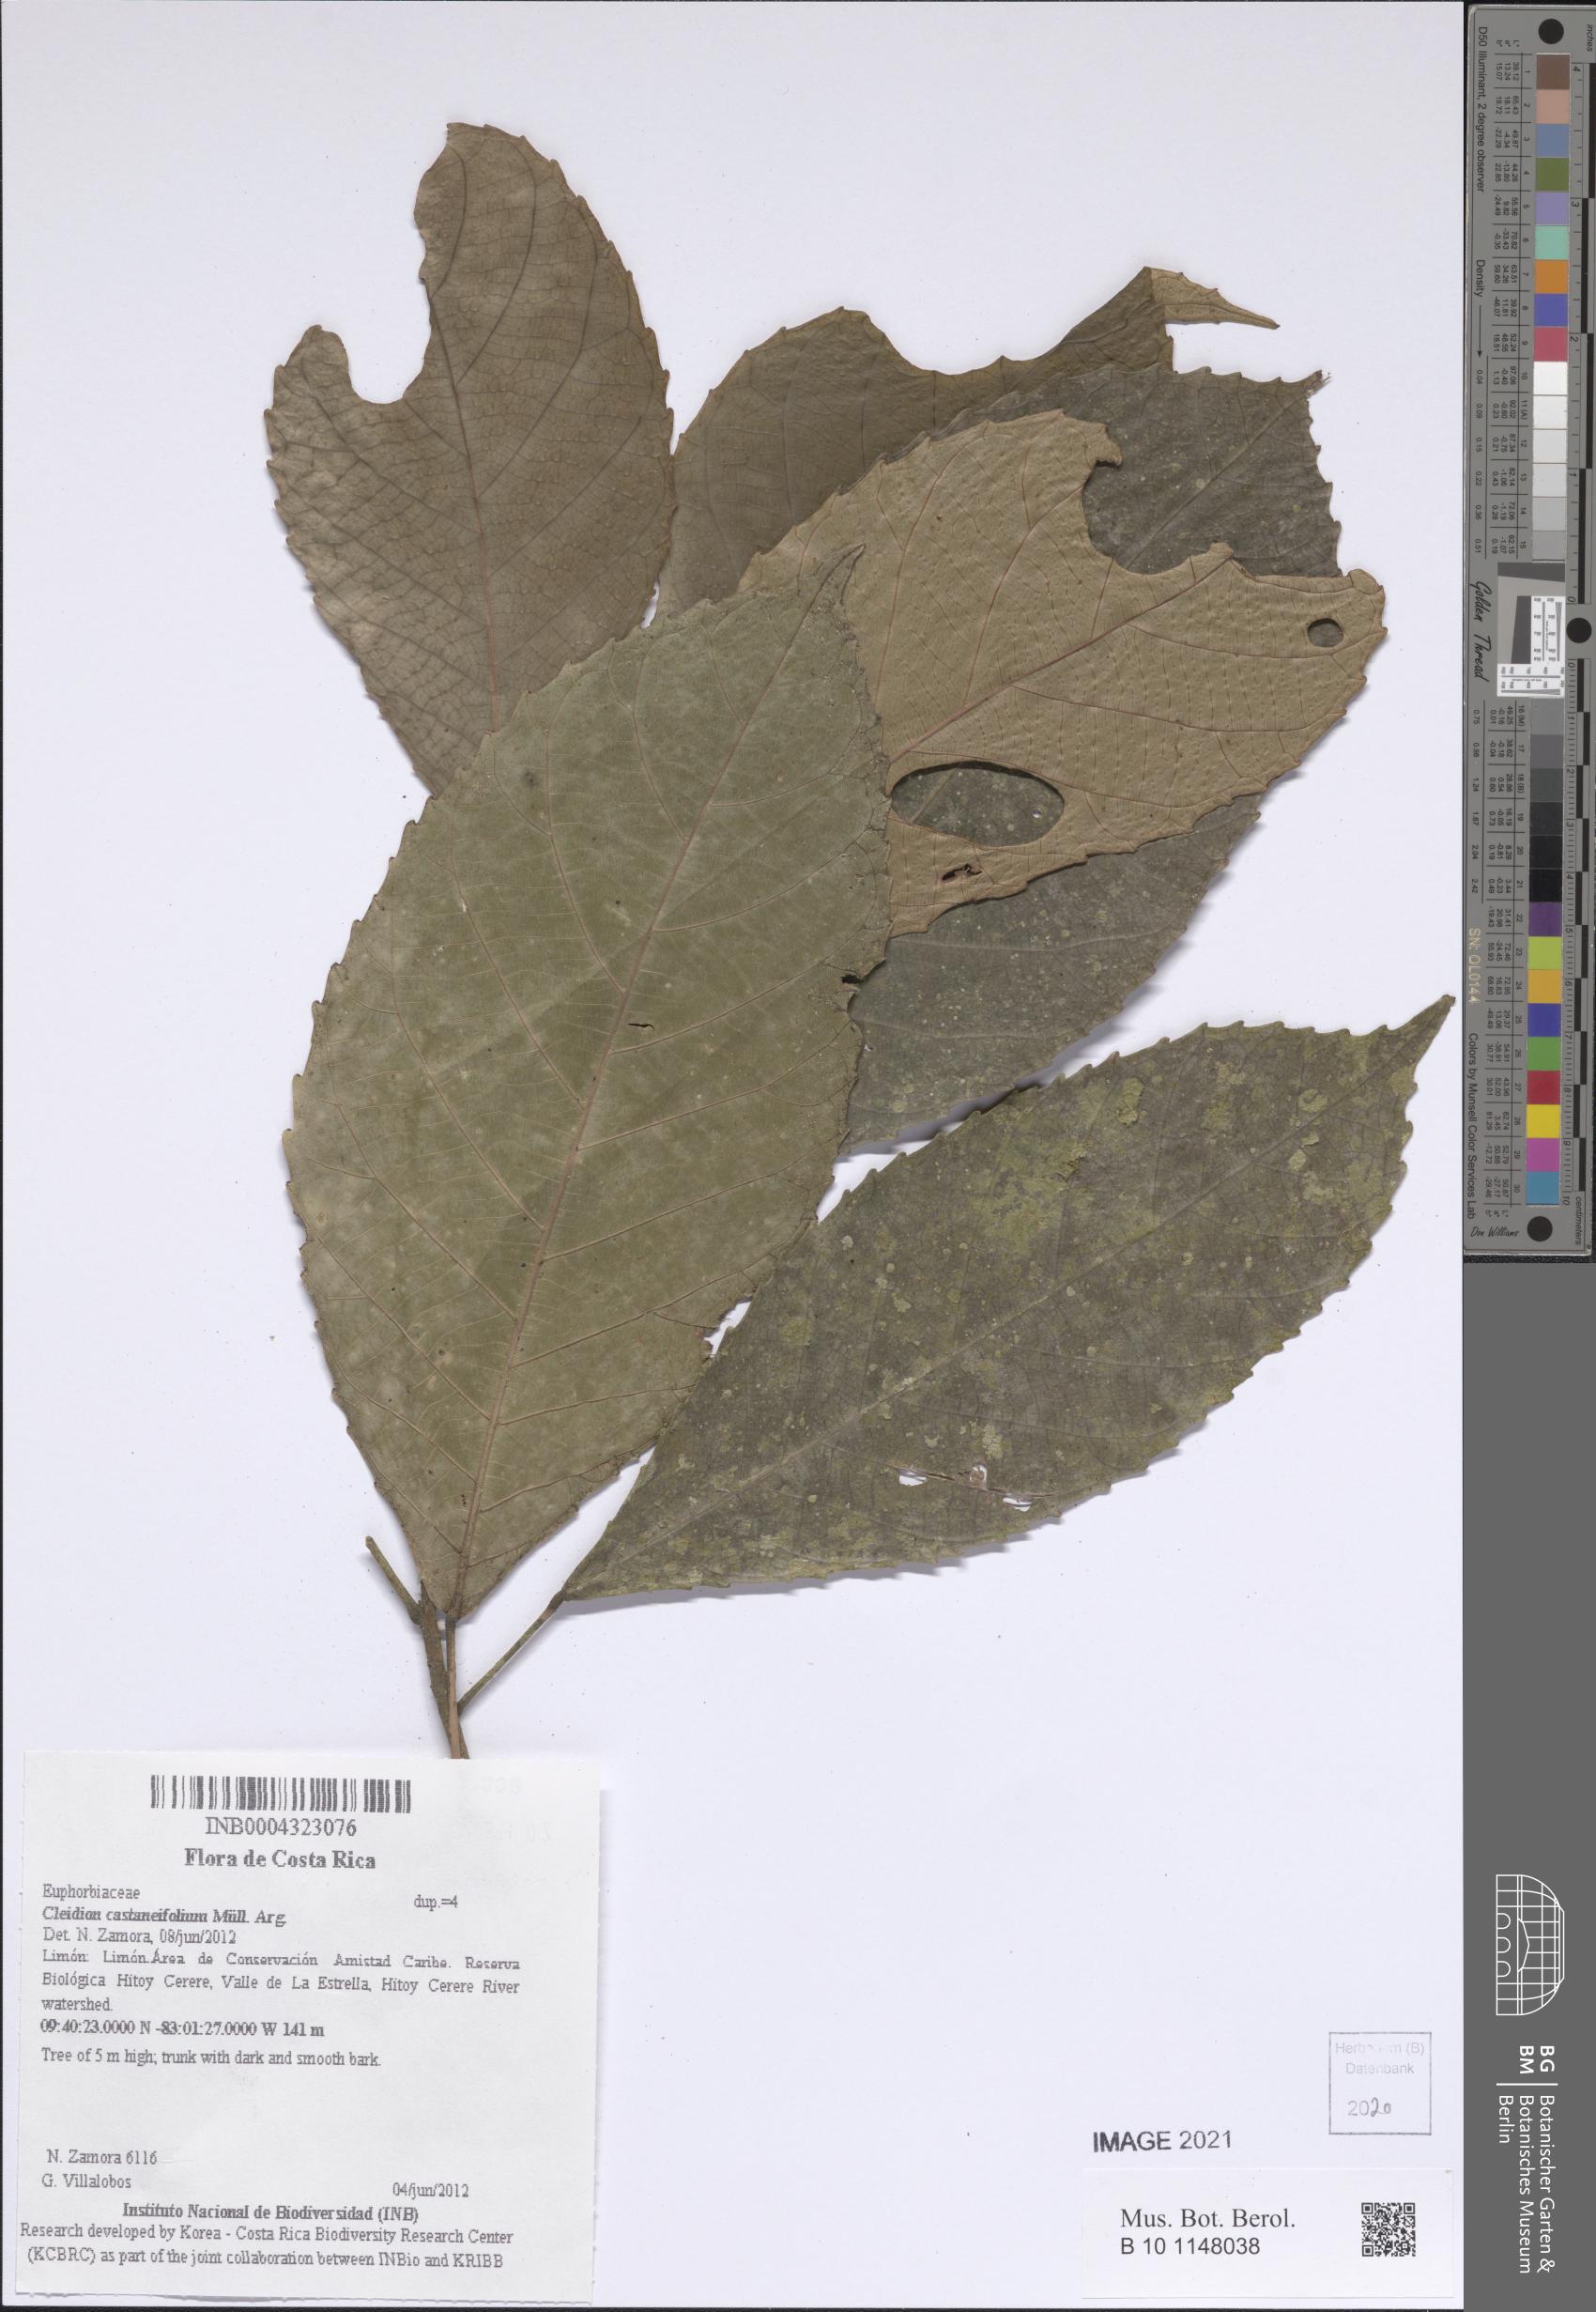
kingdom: Plantae
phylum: Tracheophyta
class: Magnoliopsida
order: Malpighiales
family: Euphorbiaceae
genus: Cleidion
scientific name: Cleidion castaneifolium
